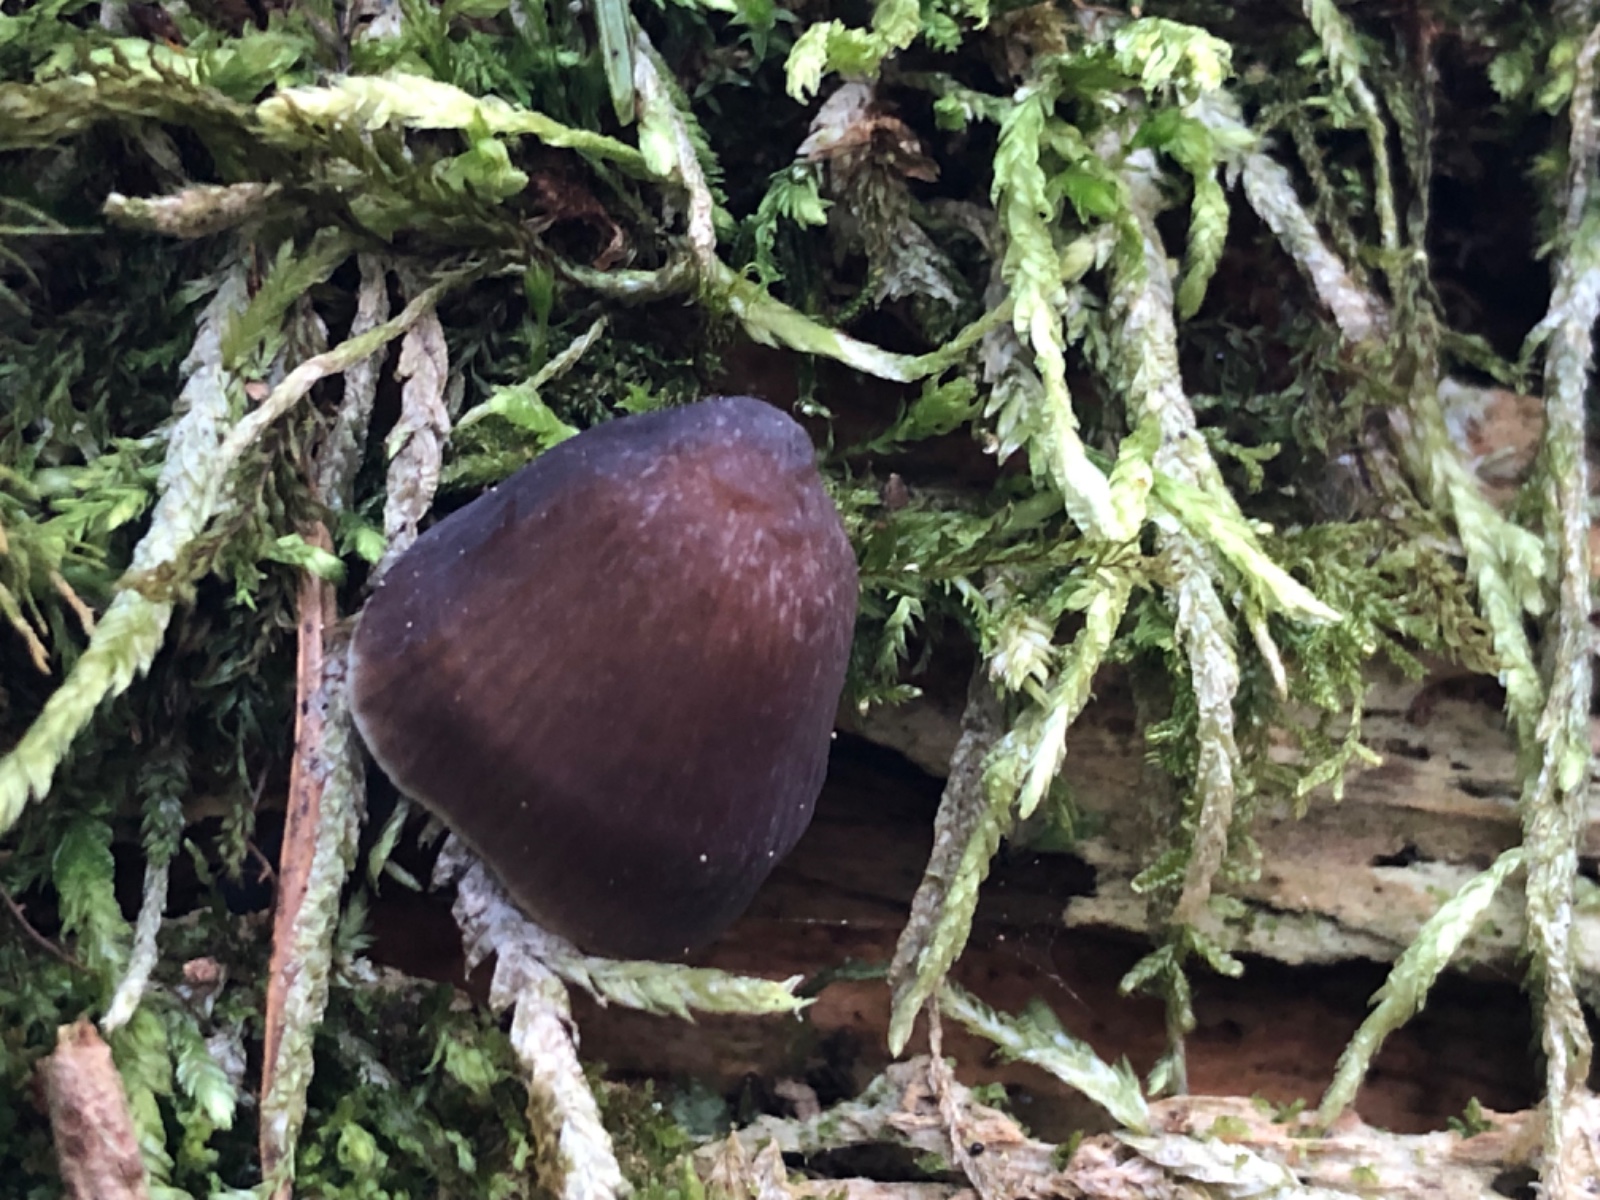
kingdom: Fungi
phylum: Basidiomycota
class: Agaricomycetes
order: Agaricales
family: Mycenaceae
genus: Mycena
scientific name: Mycena silvae-nigrae
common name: tidlig huesvamp
